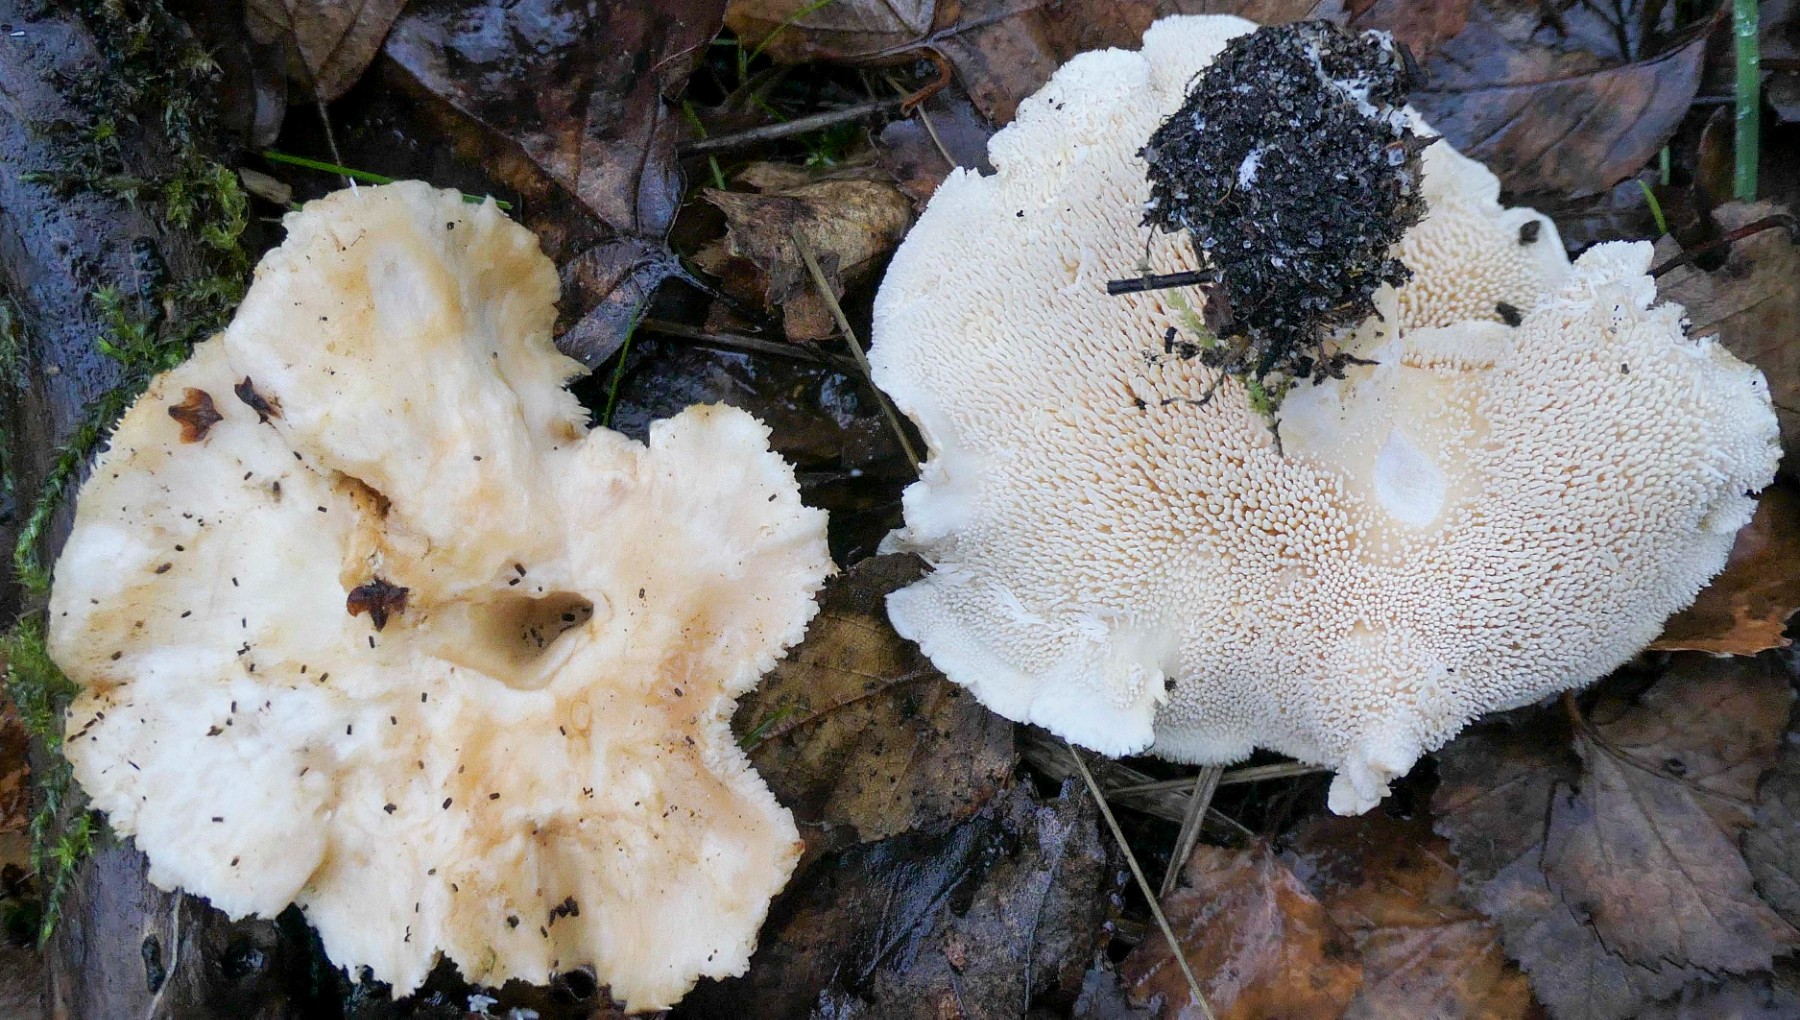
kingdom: Fungi
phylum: Basidiomycota
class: Agaricomycetes
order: Cantharellales
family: Hydnaceae
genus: Hydnum
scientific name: Hydnum
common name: pigsvamp
